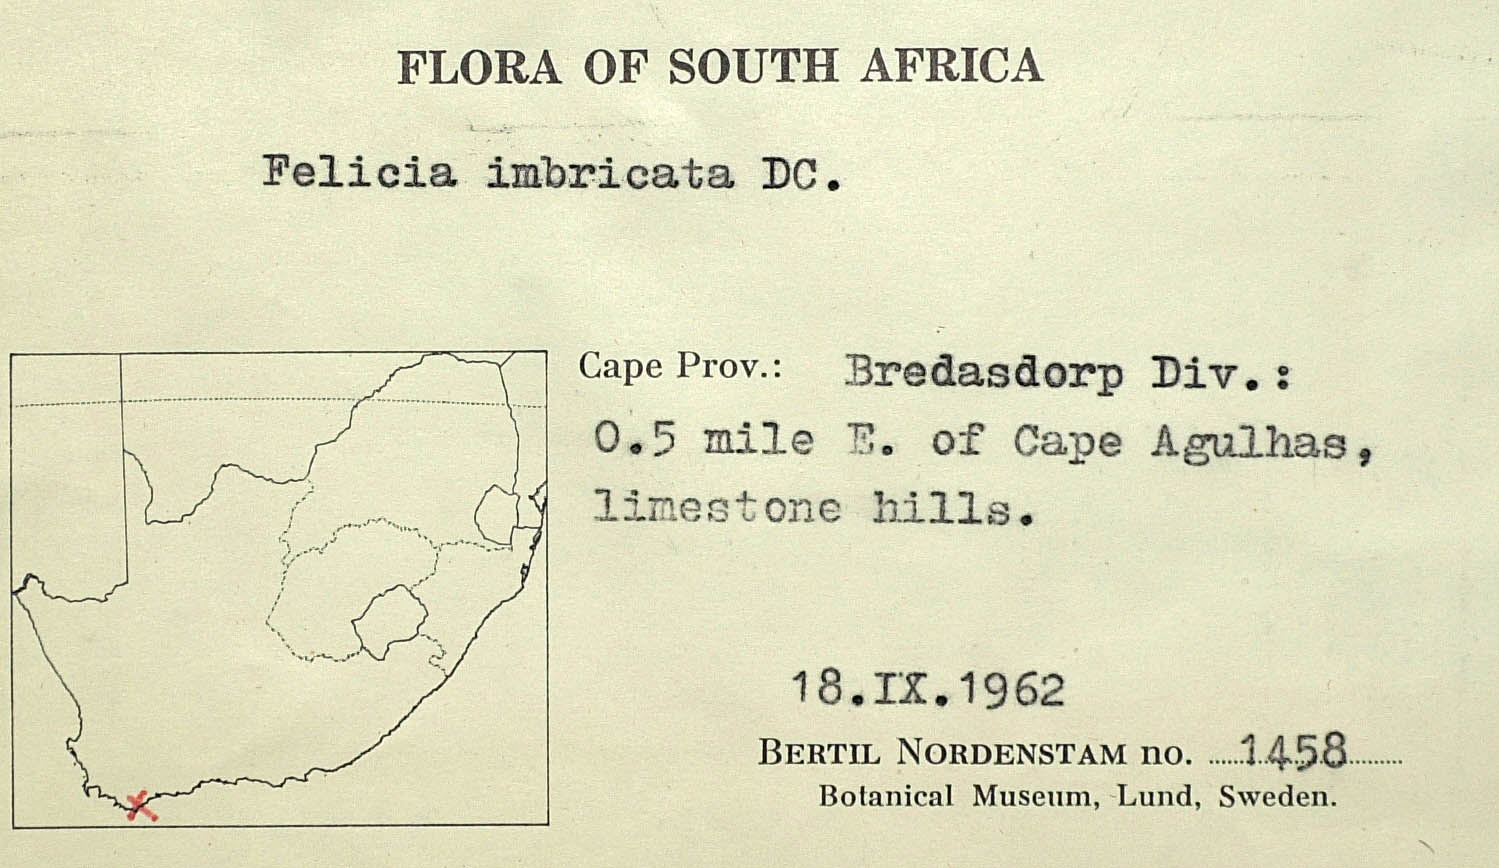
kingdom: Plantae
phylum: Tracheophyta
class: Magnoliopsida
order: Asterales
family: Asteraceae
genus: Felicia
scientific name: Felicia nordenstamii
